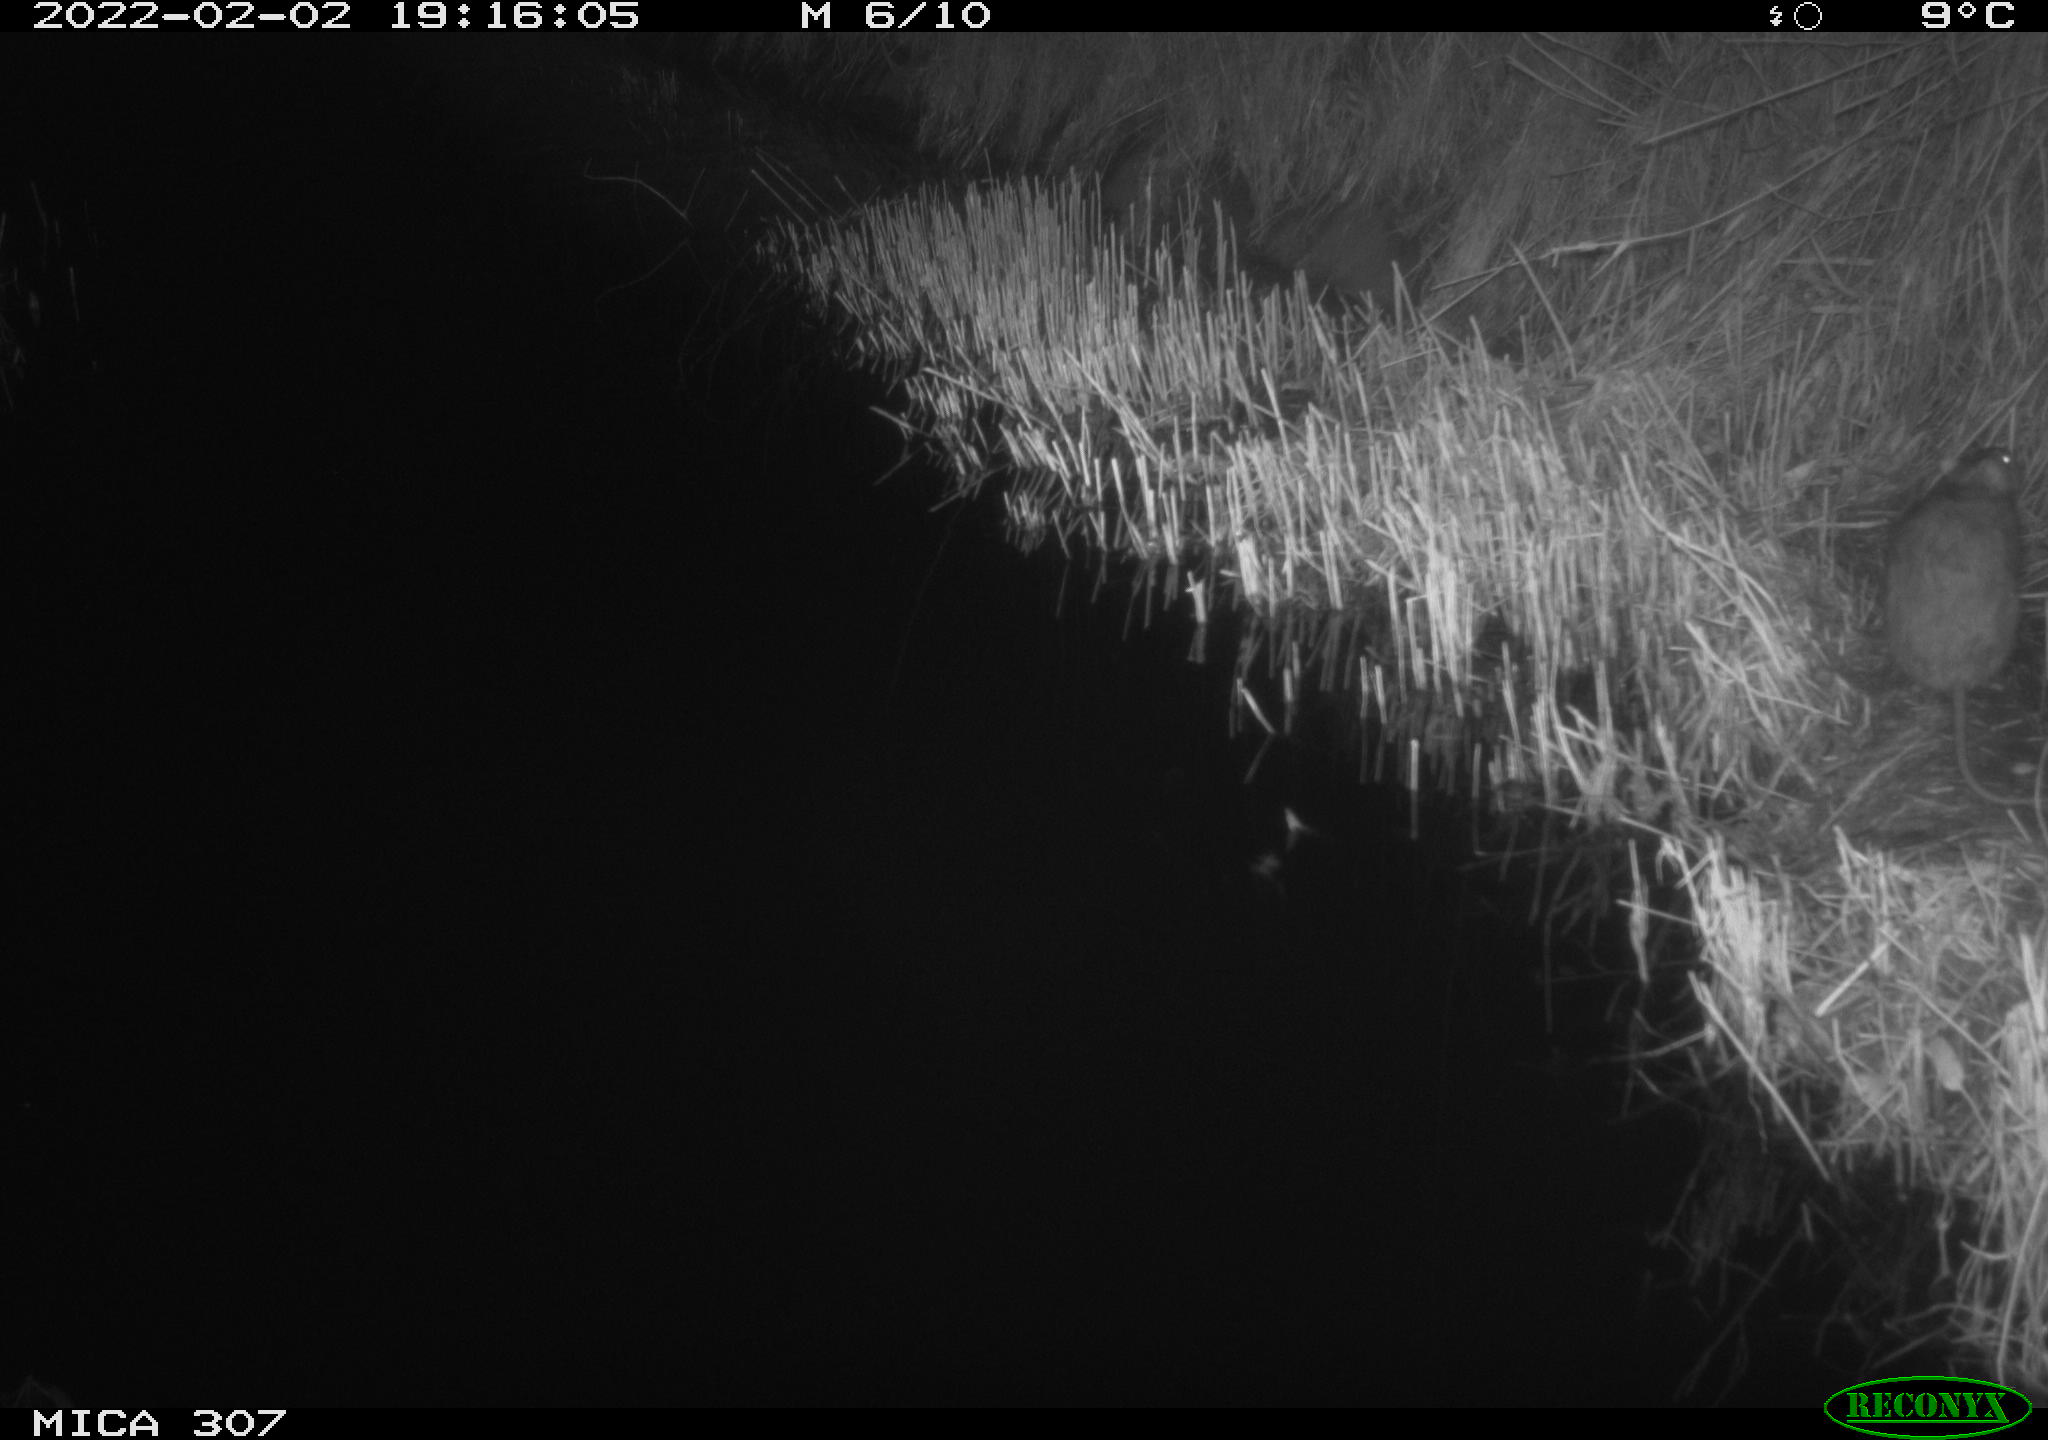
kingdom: Animalia
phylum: Chordata
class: Mammalia
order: Rodentia
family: Muridae
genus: Rattus
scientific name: Rattus norvegicus
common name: Brown rat
